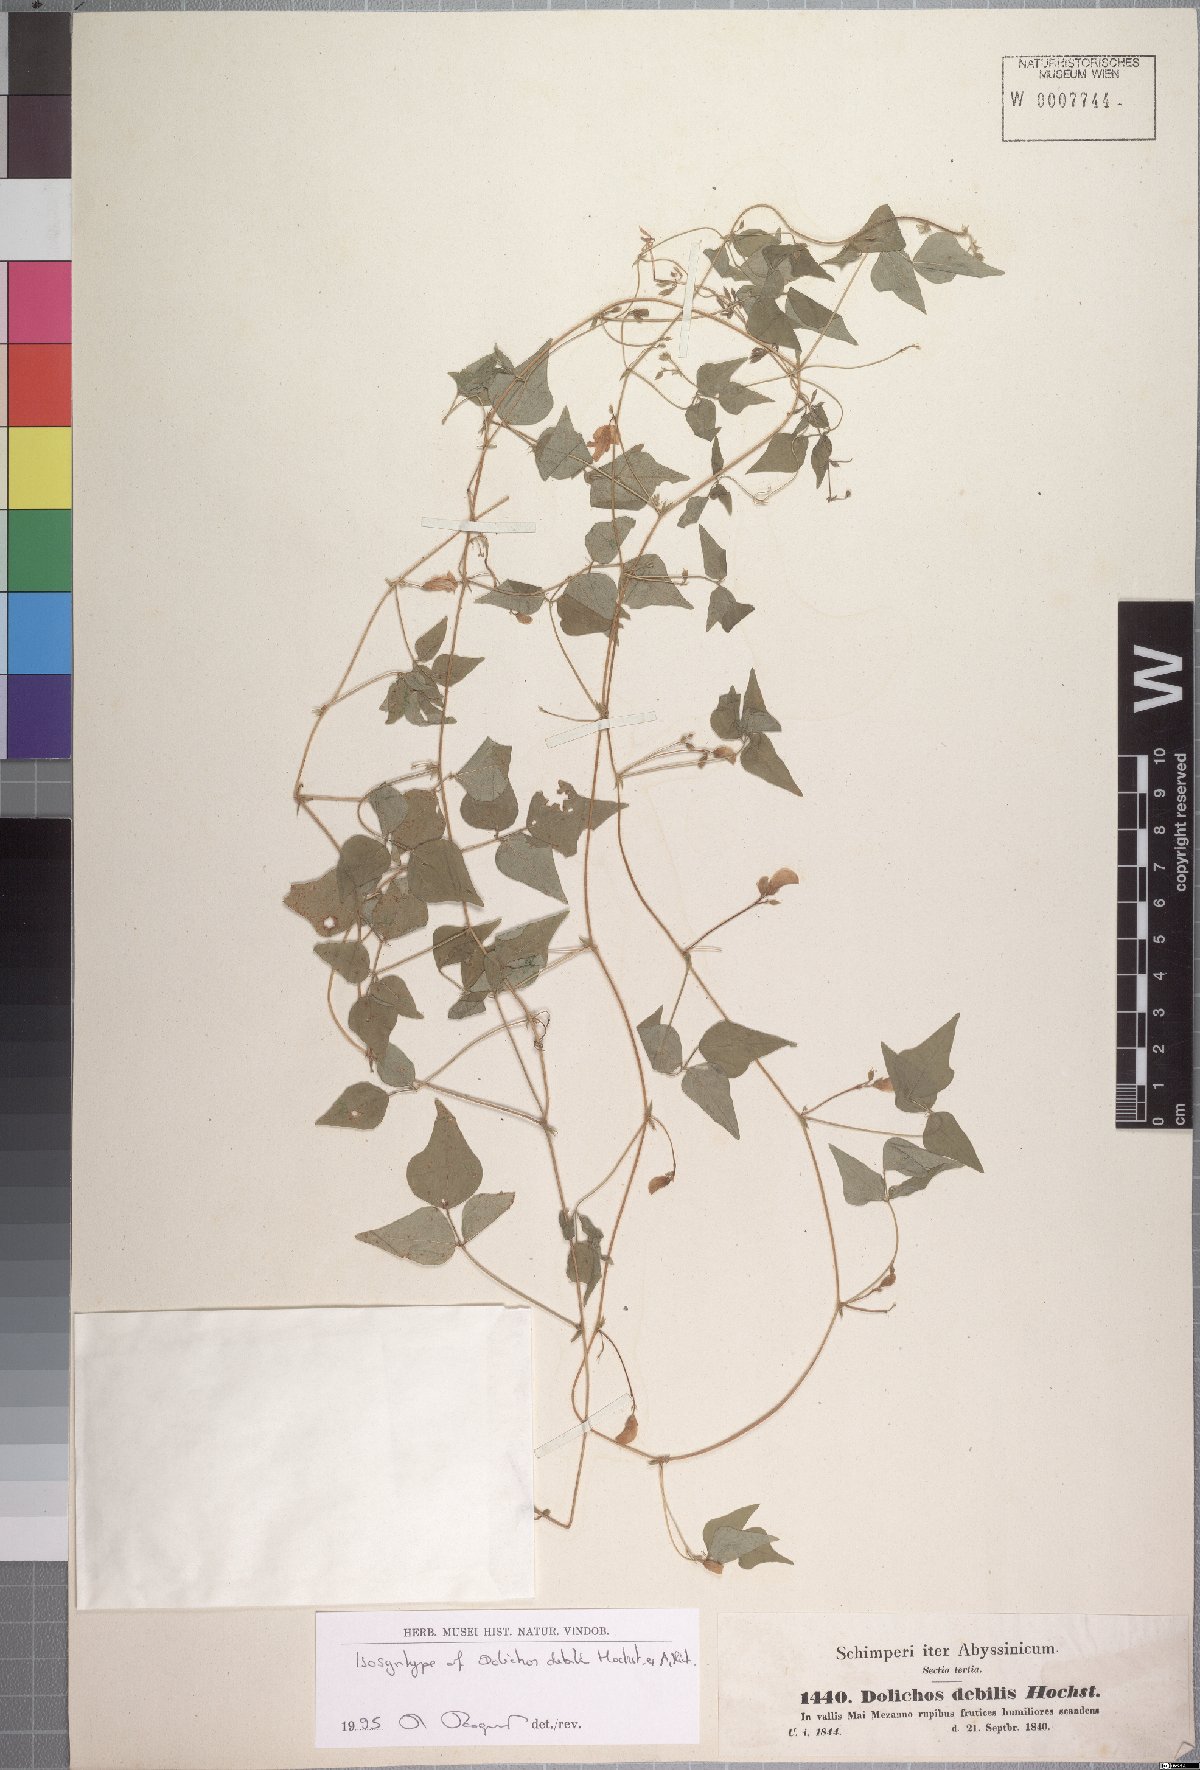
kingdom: Plantae
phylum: Tracheophyta
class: Magnoliopsida
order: Fabales
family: Fabaceae
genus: Dolichos
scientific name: Dolichos trilobus
